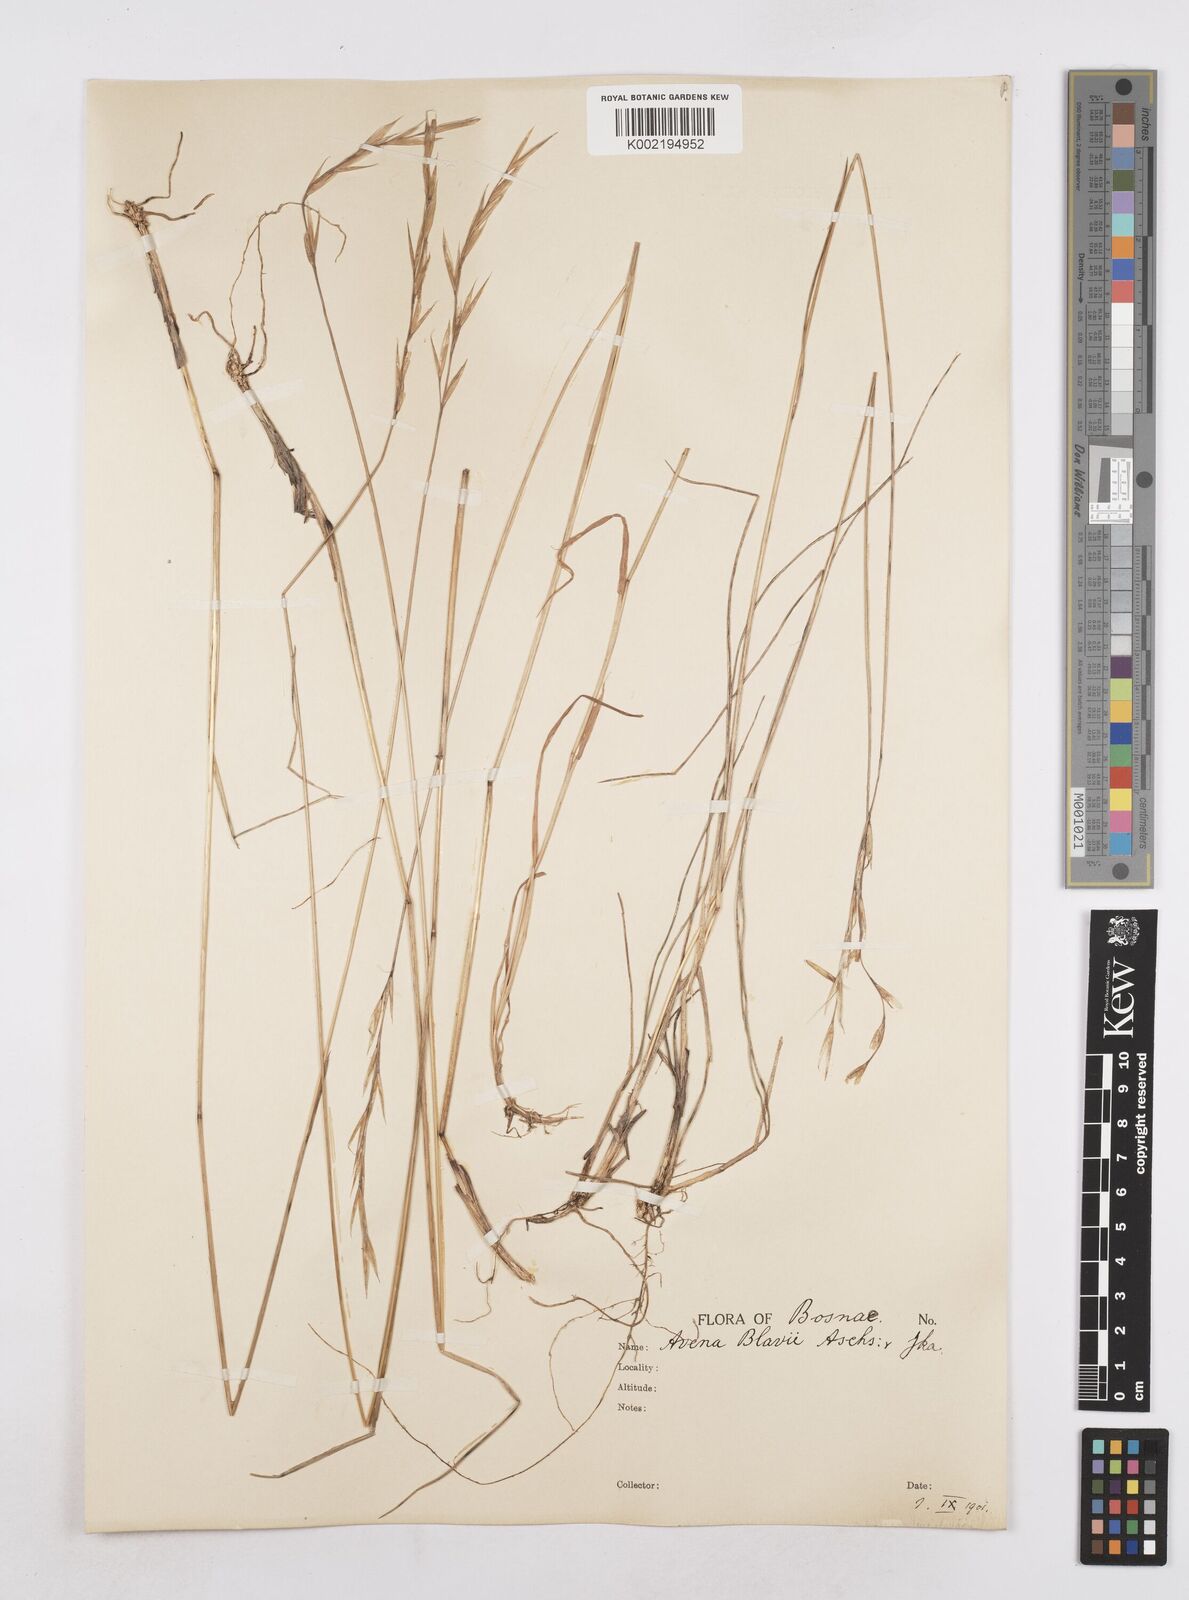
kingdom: Plantae
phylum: Tracheophyta
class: Liliopsida
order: Poales
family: Poaceae
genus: Helictochloa
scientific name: Helictochloa blaui
